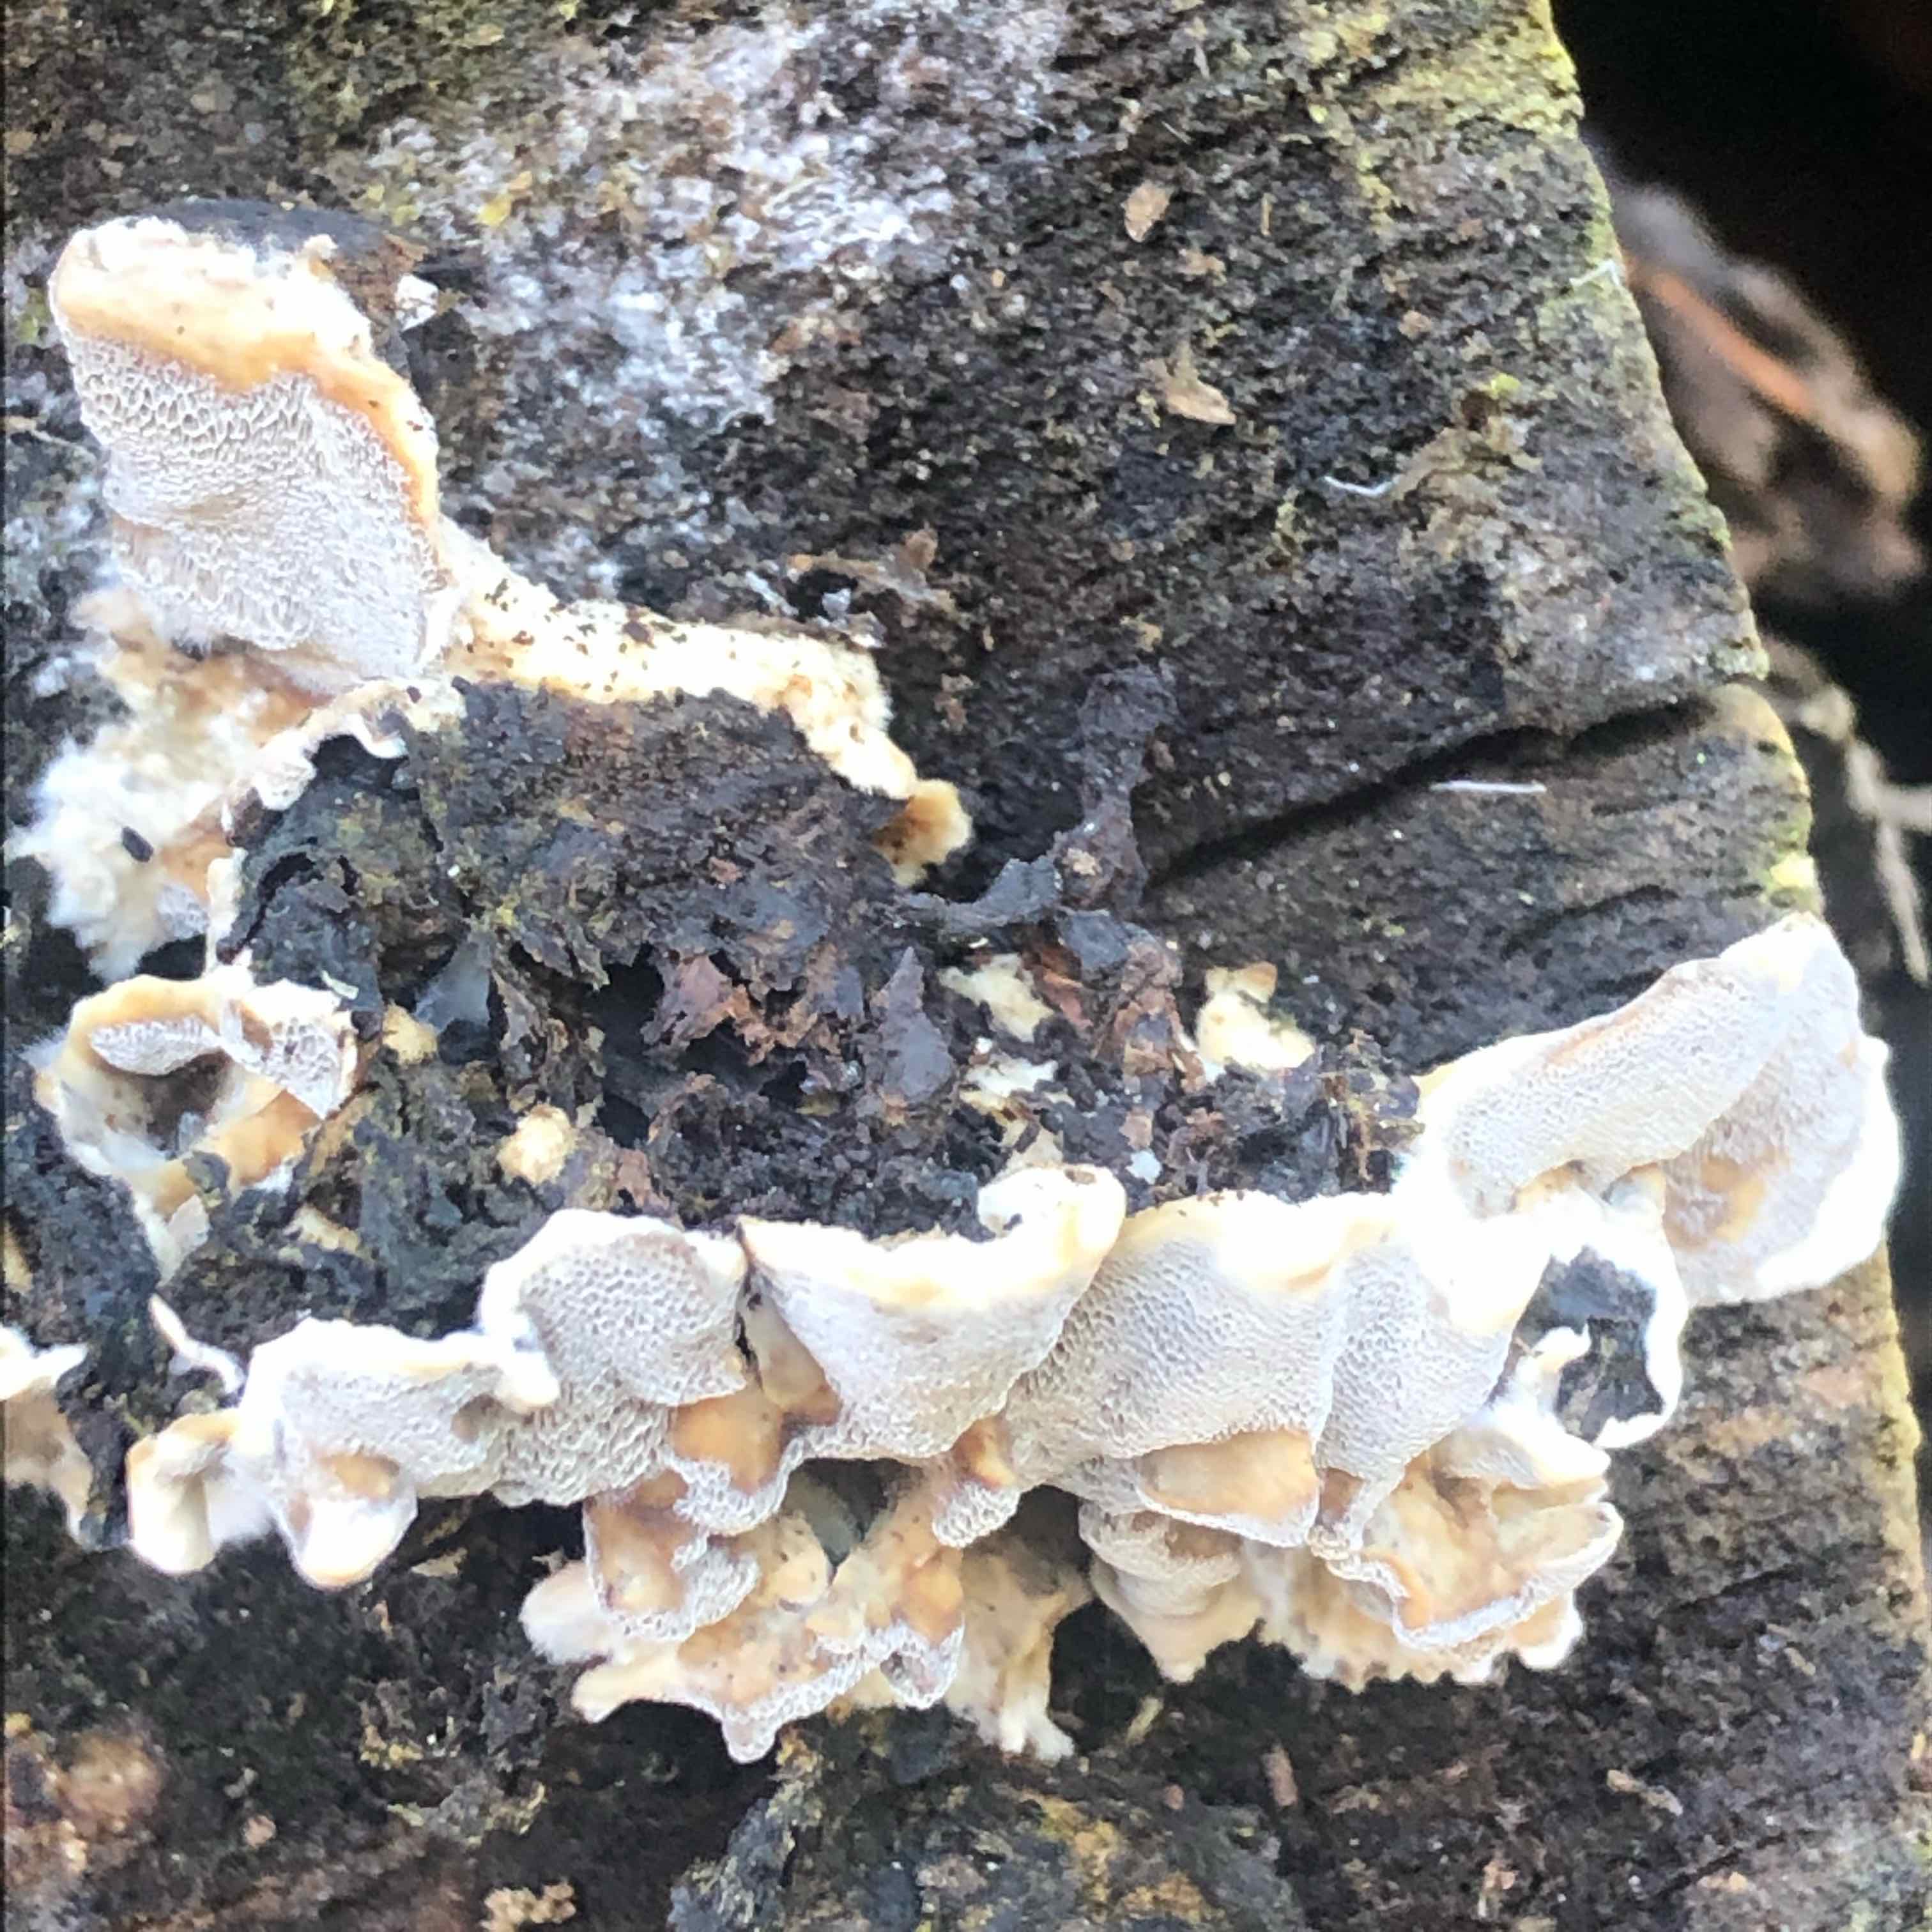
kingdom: Fungi
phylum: Basidiomycota
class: Agaricomycetes
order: Polyporales
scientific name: Polyporales
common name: poresvampordenen
